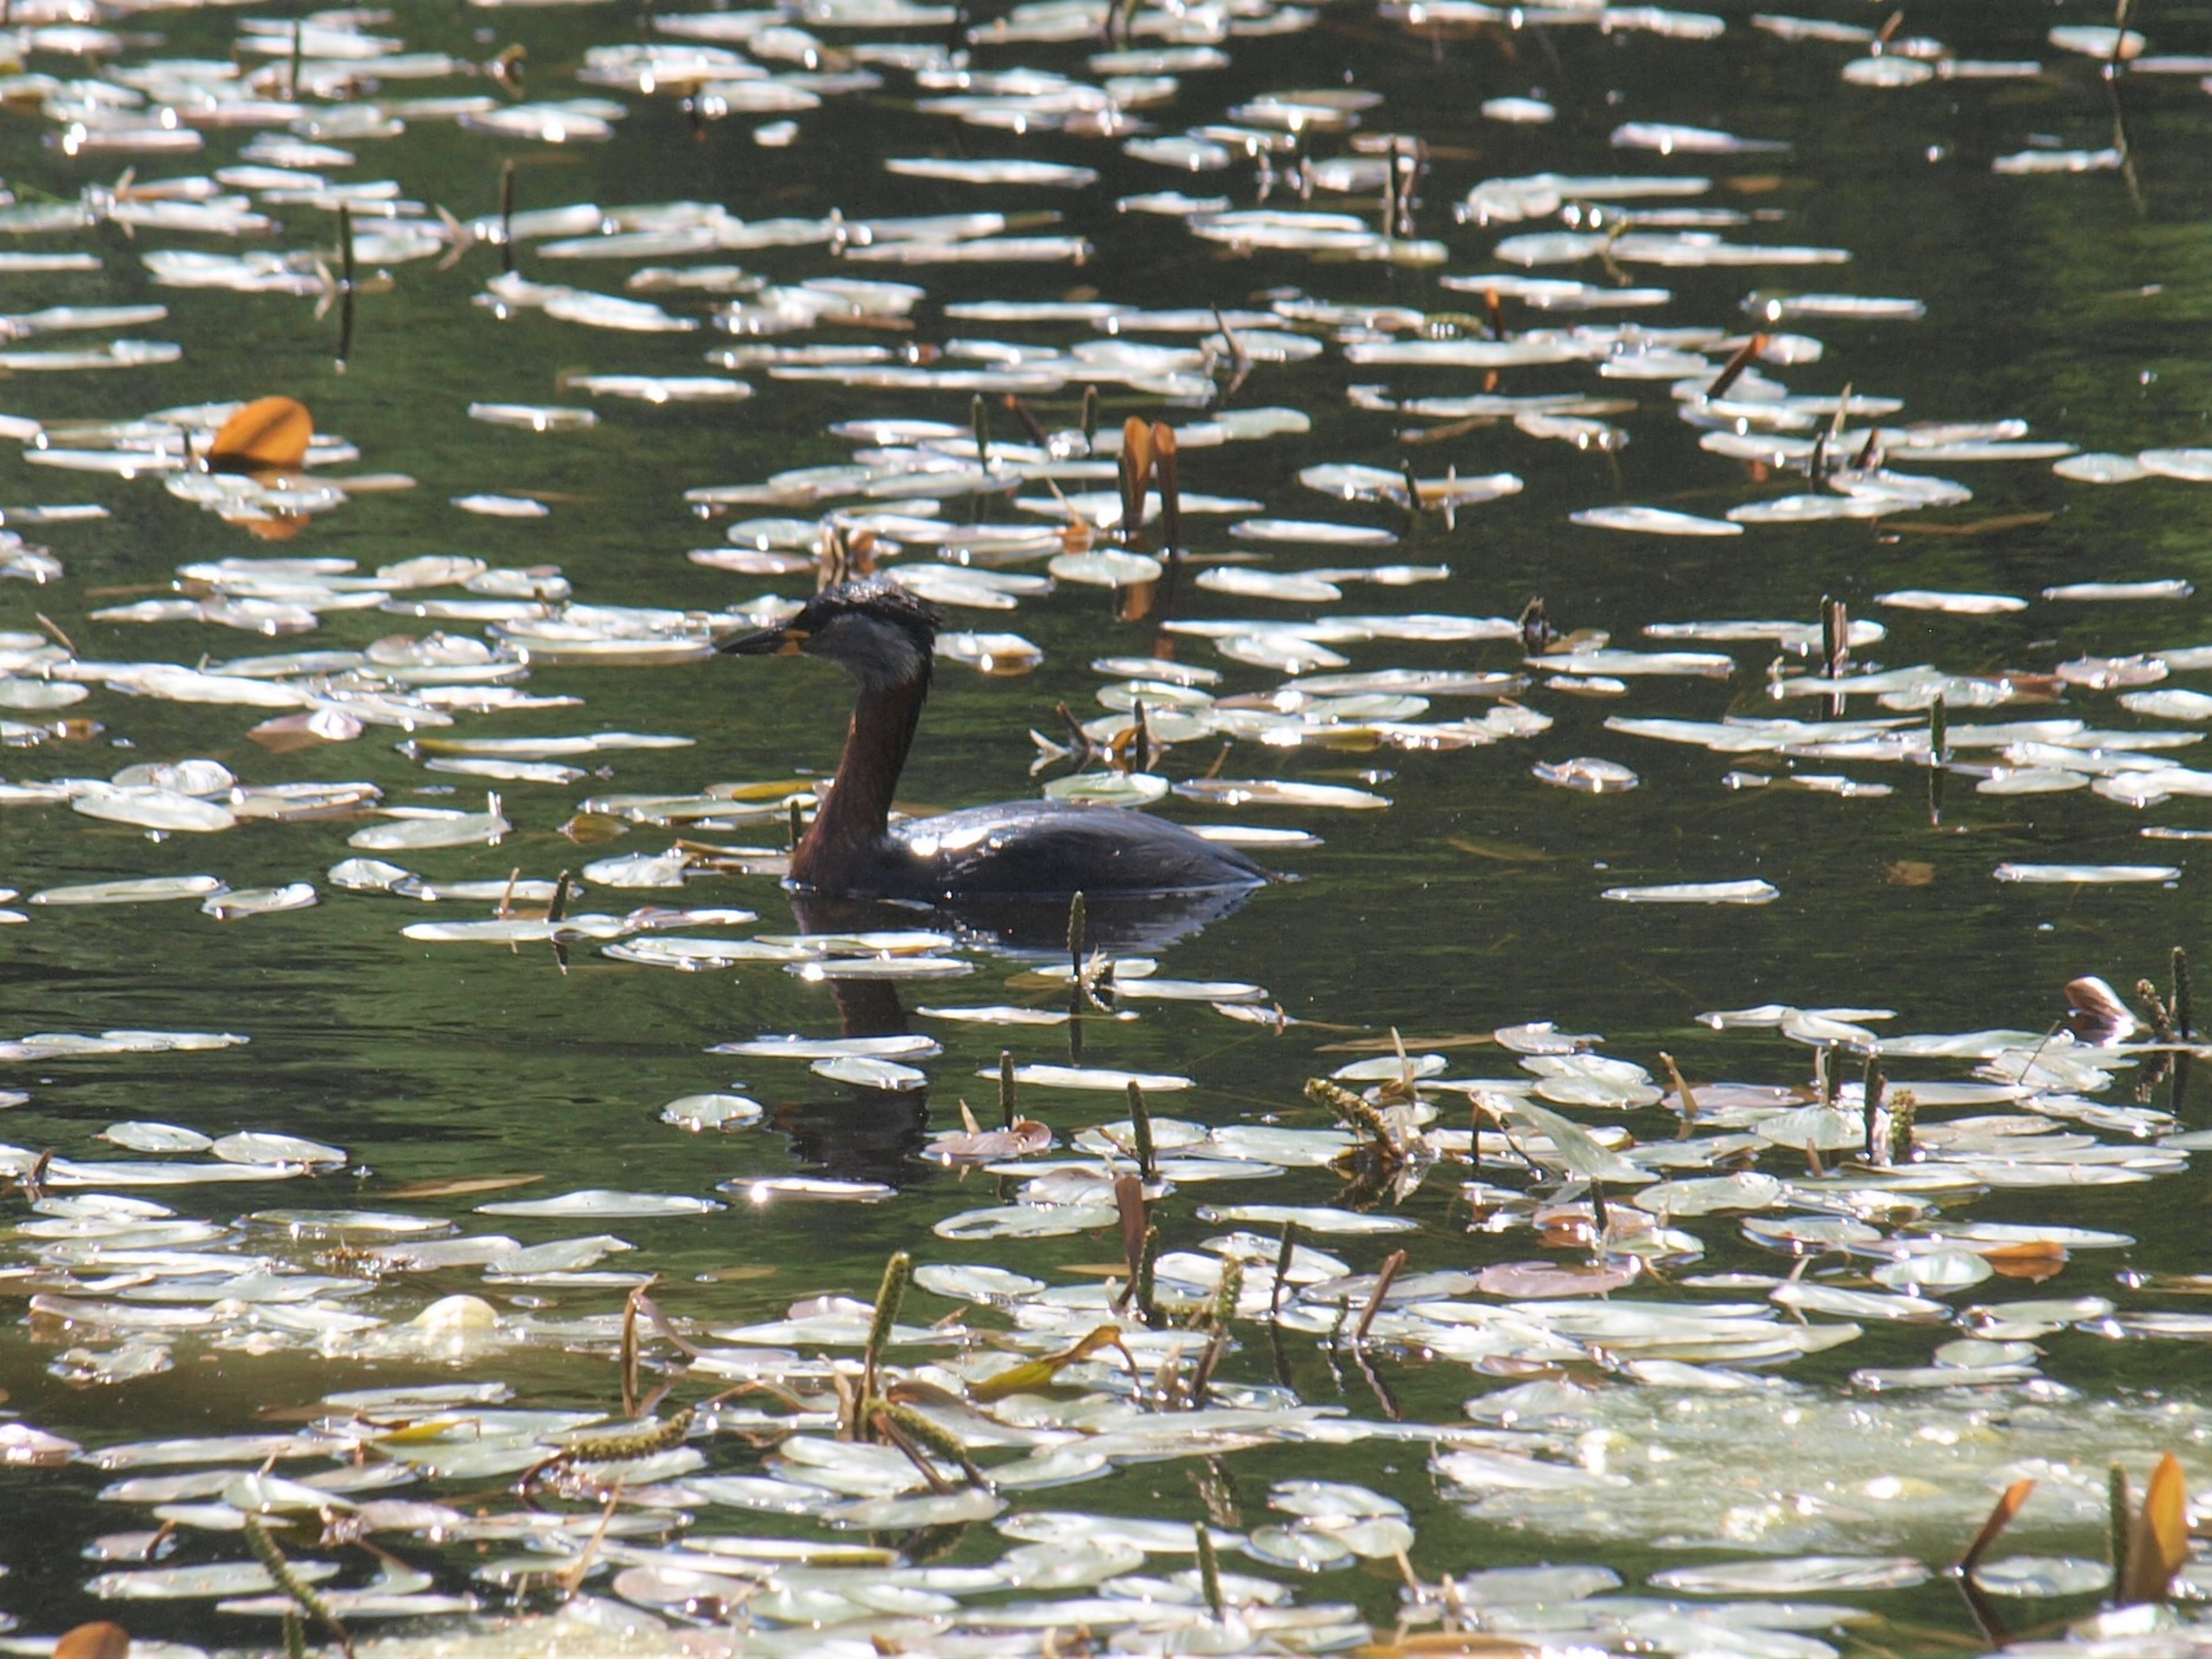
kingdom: Animalia
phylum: Chordata
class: Aves
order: Podicipediformes
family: Podicipedidae
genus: Podiceps
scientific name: Podiceps grisegena
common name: Gråstrubet lappedykker
